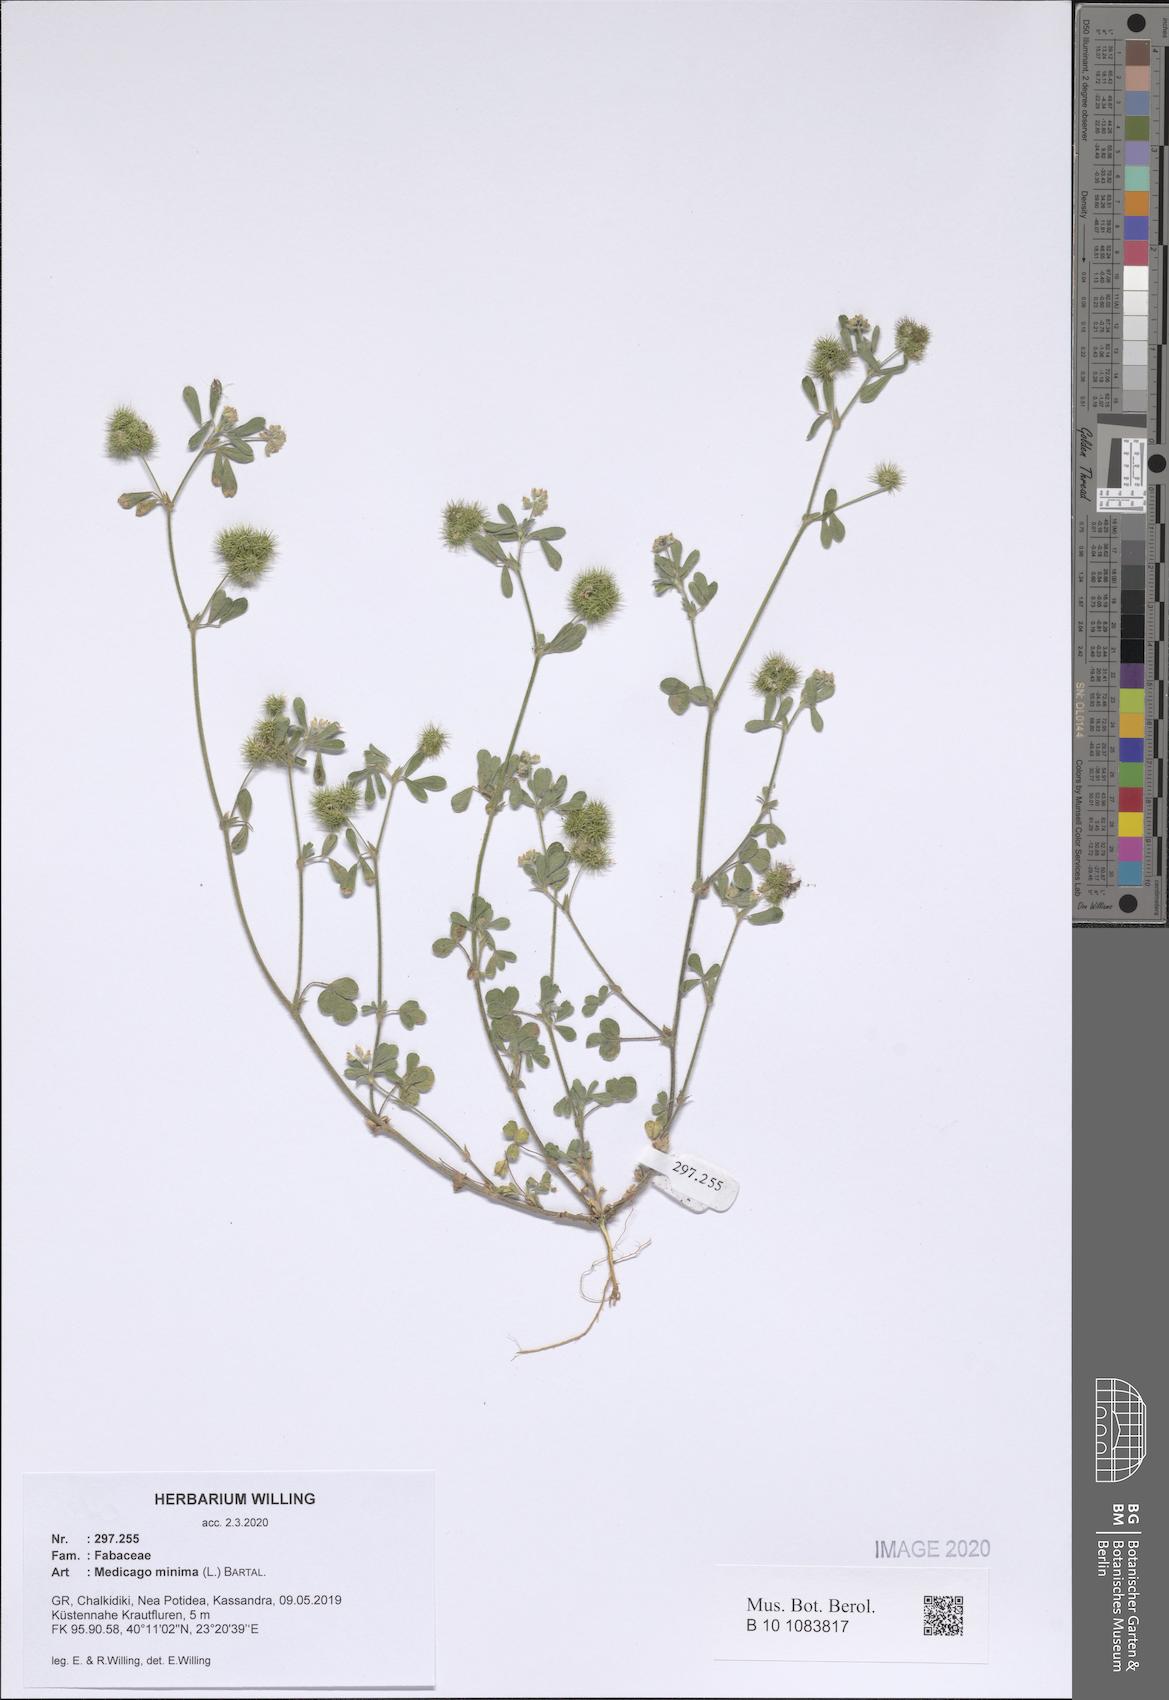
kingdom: Plantae
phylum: Tracheophyta
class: Magnoliopsida
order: Fabales
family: Fabaceae
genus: Medicago
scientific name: Medicago minima
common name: Little bur-clover
